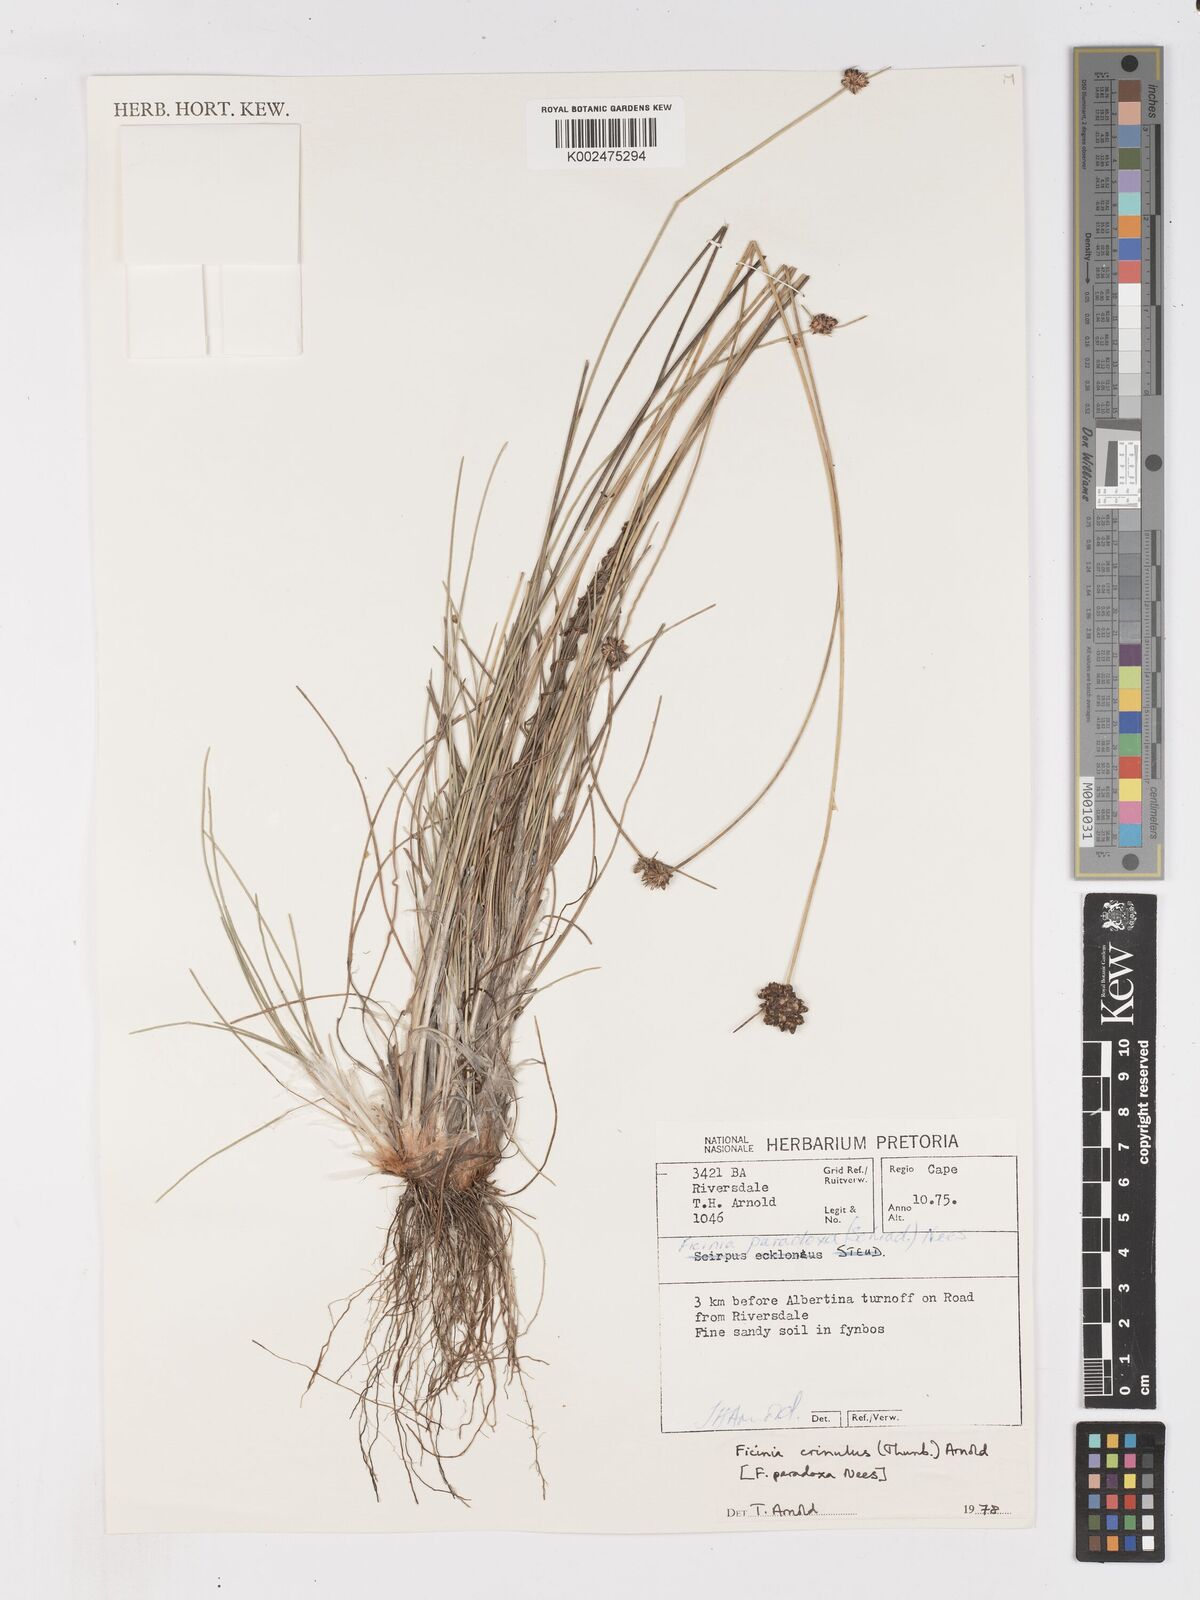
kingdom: Plantae
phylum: Tracheophyta
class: Liliopsida
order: Poales
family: Cyperaceae
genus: Ficinia
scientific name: Ficinia paradoxa
